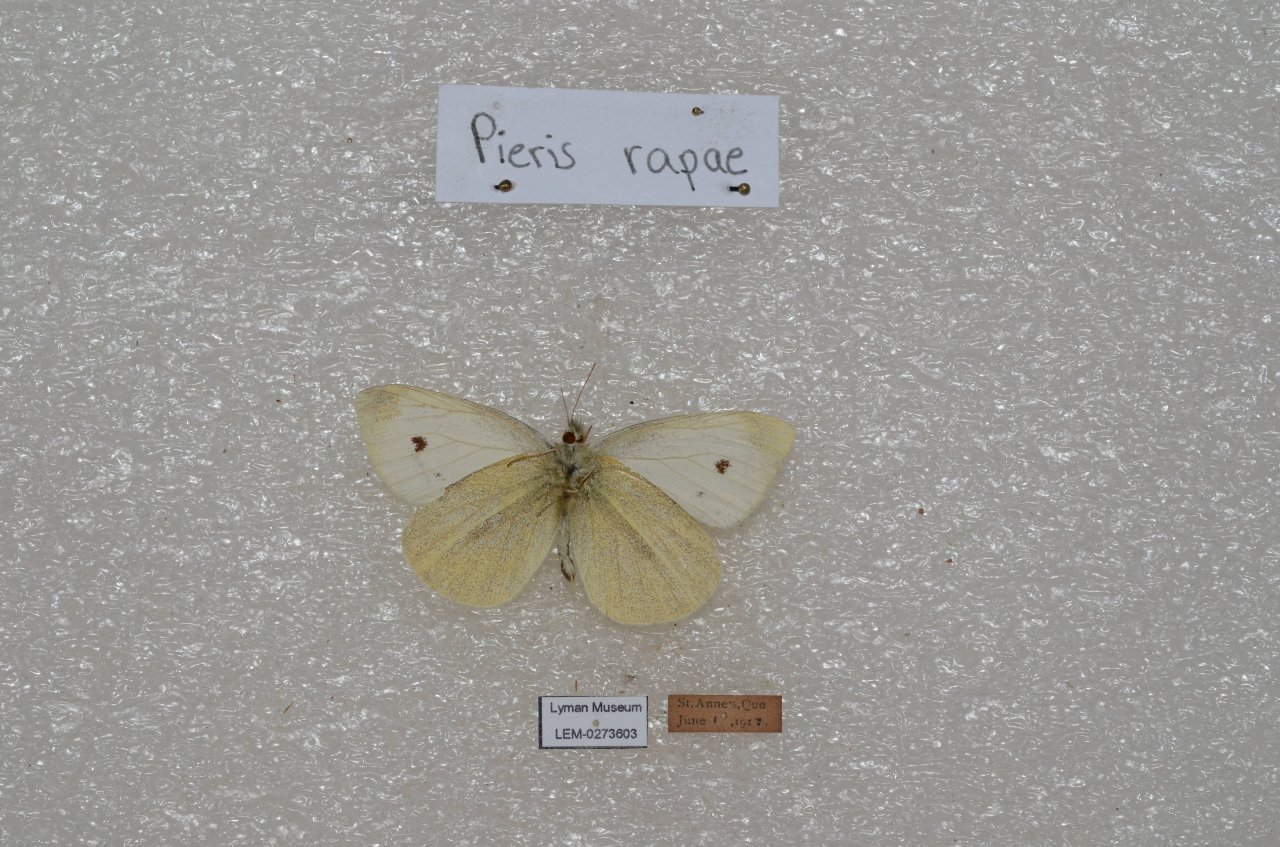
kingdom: Animalia
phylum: Arthropoda
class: Insecta
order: Lepidoptera
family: Pieridae
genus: Pieris
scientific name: Pieris rapae
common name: Cabbage White
